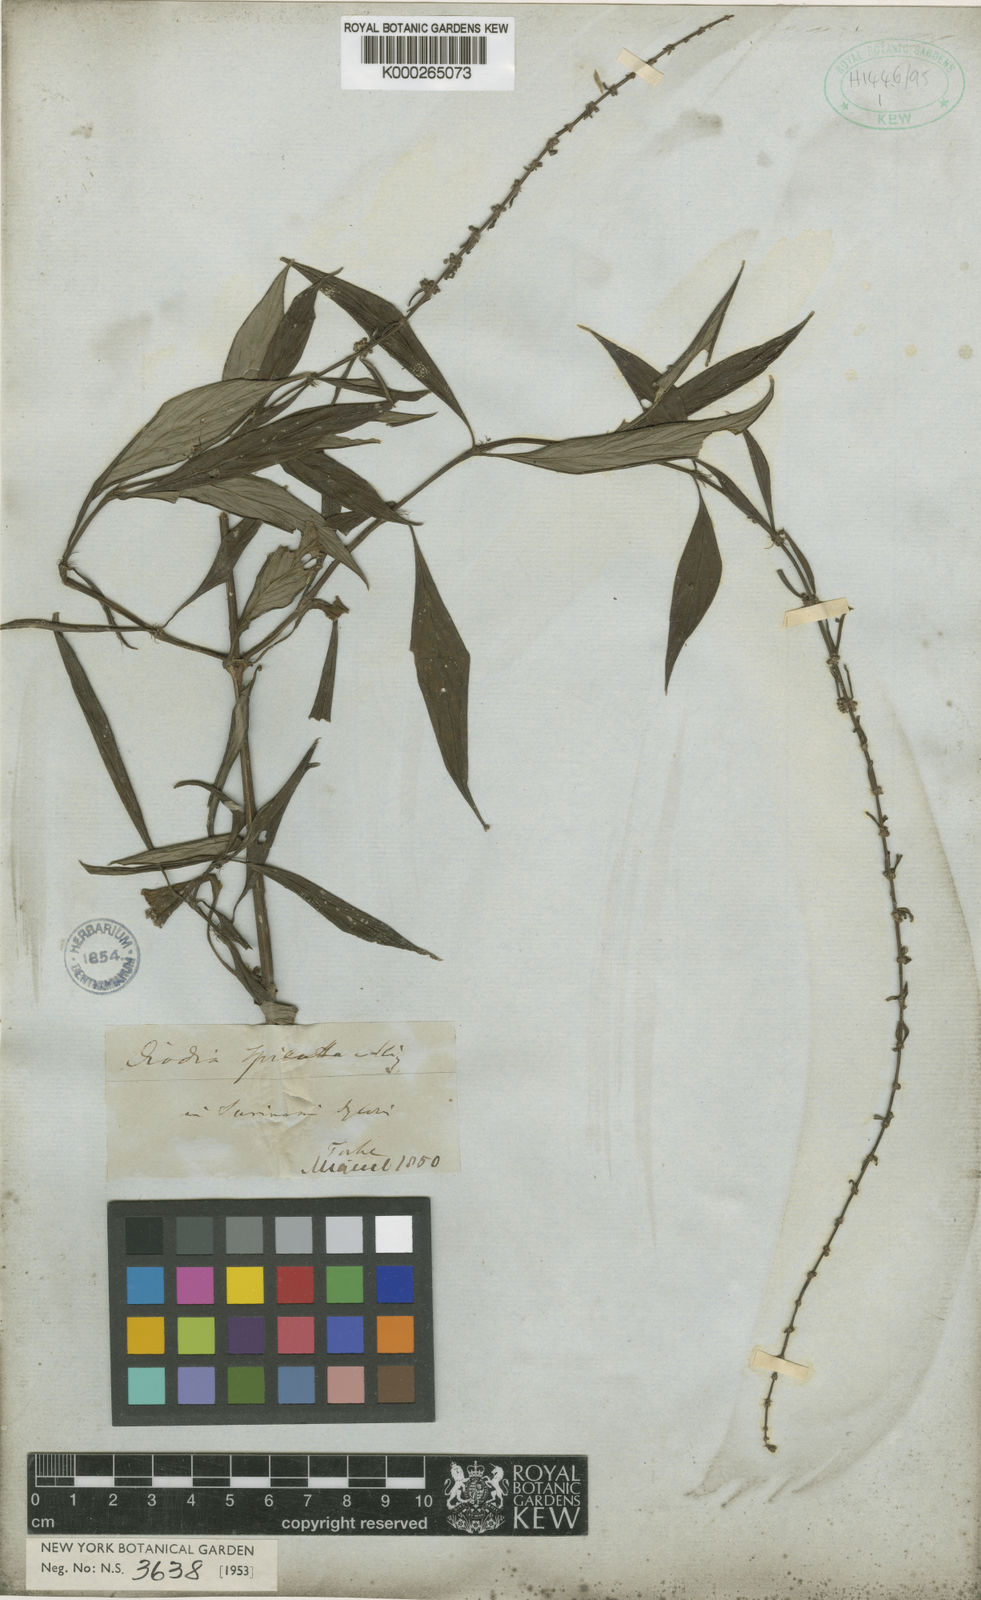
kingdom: Plantae
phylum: Tracheophyta
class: Magnoliopsida
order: Gentianales
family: Rubiaceae
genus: Galianthe
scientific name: Galianthe spicata
